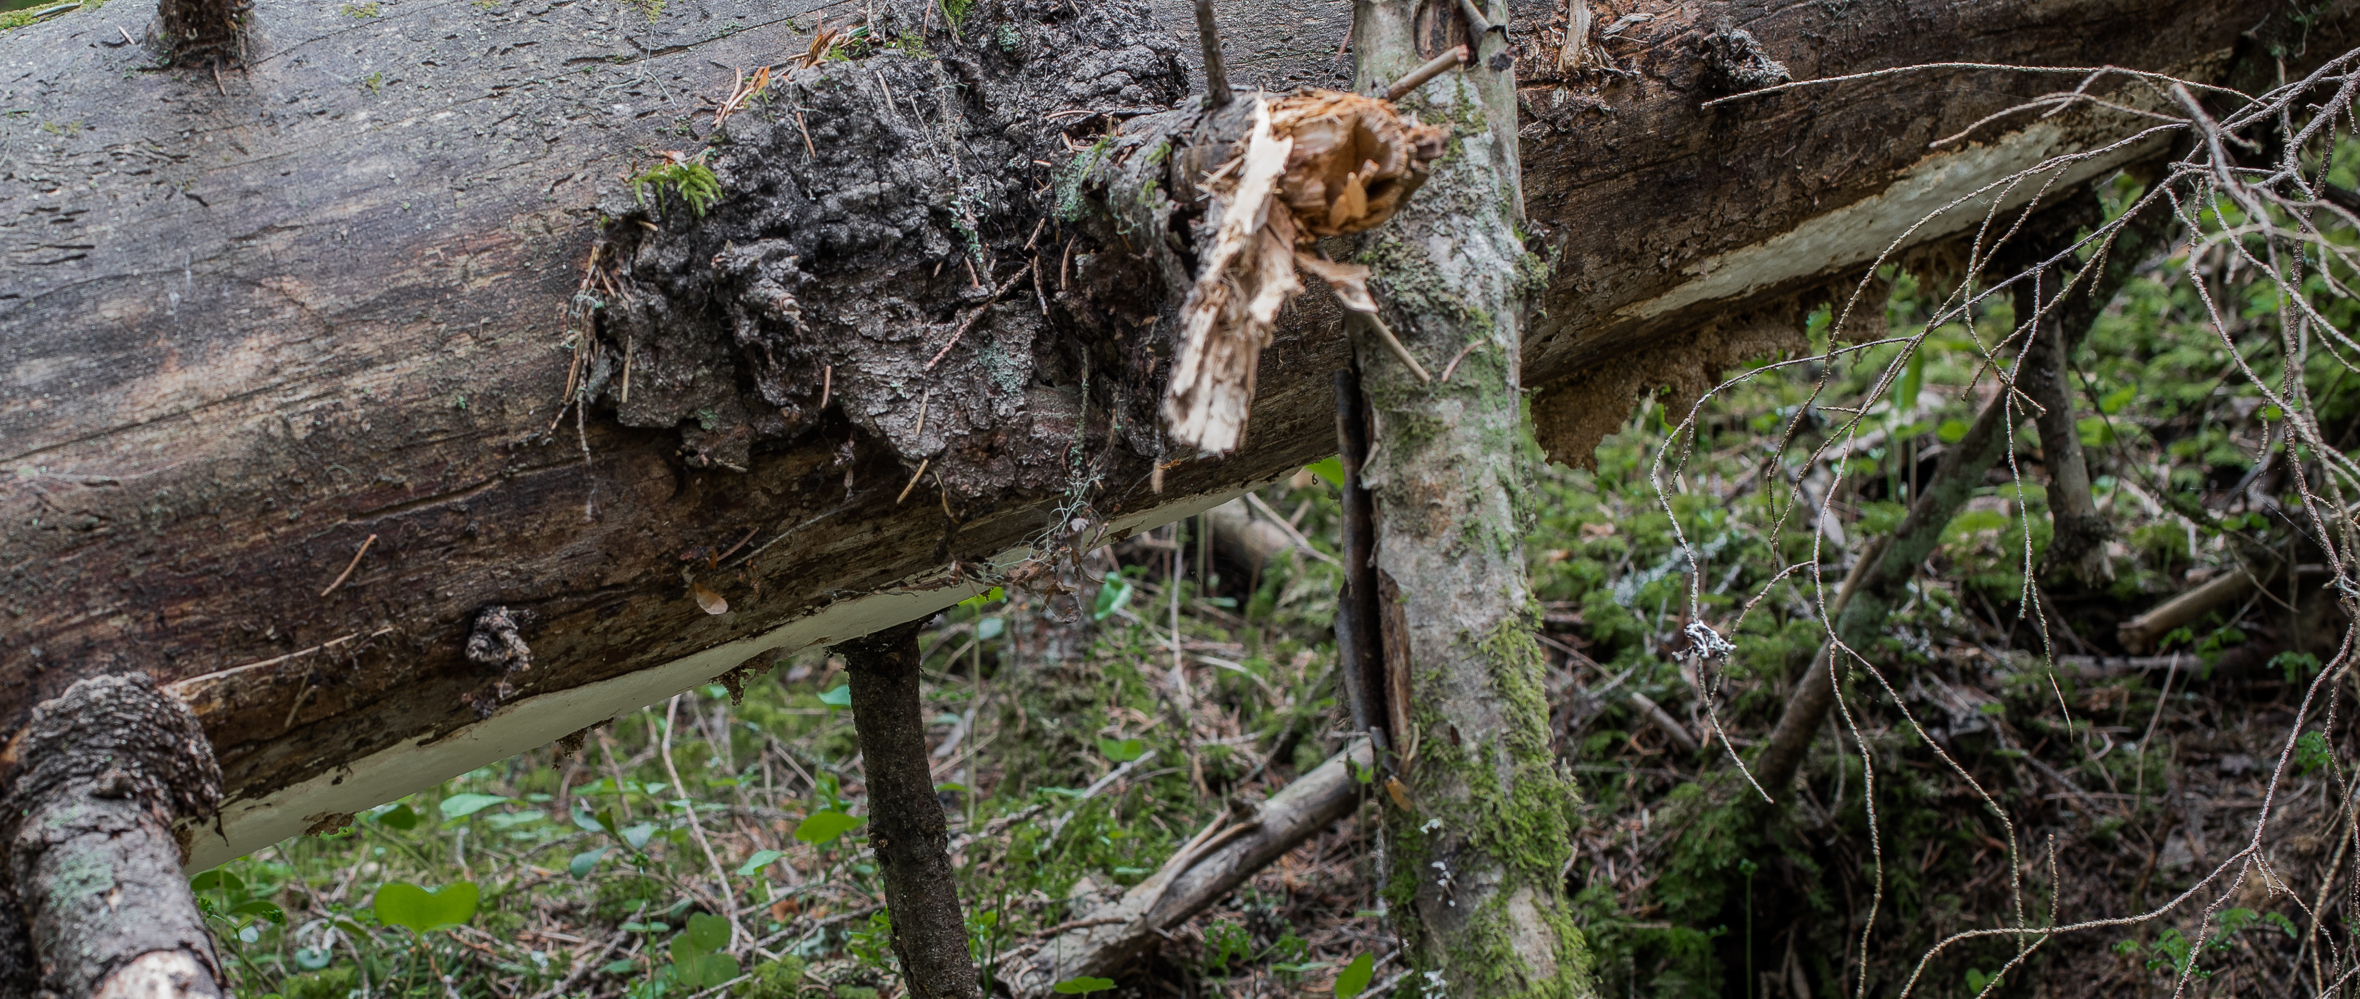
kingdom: Fungi
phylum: Basidiomycota
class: Agaricomycetes
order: Polyporales
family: Fomitopsidaceae
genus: Neoantrodia
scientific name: Neoantrodia serialis
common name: Serried porecrust
